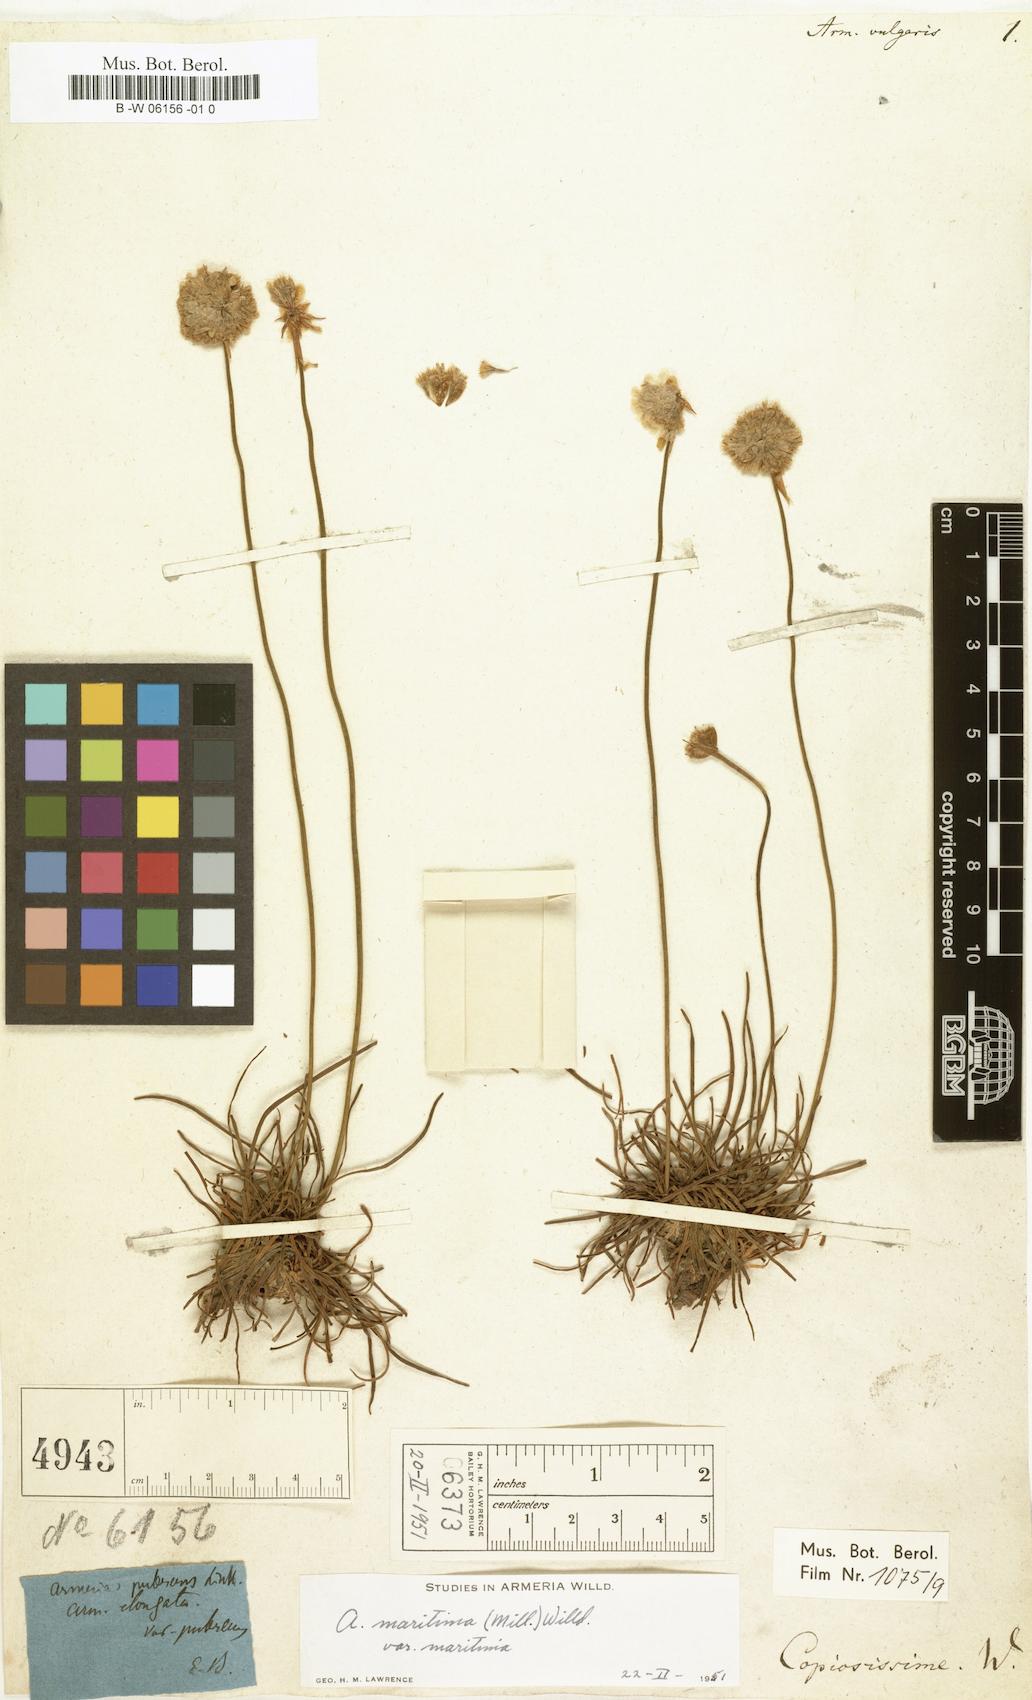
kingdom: Plantae
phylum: Tracheophyta
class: Magnoliopsida
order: Caryophyllales
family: Plumbaginaceae
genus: Armeria
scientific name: Armeria maritima
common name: Thrift
